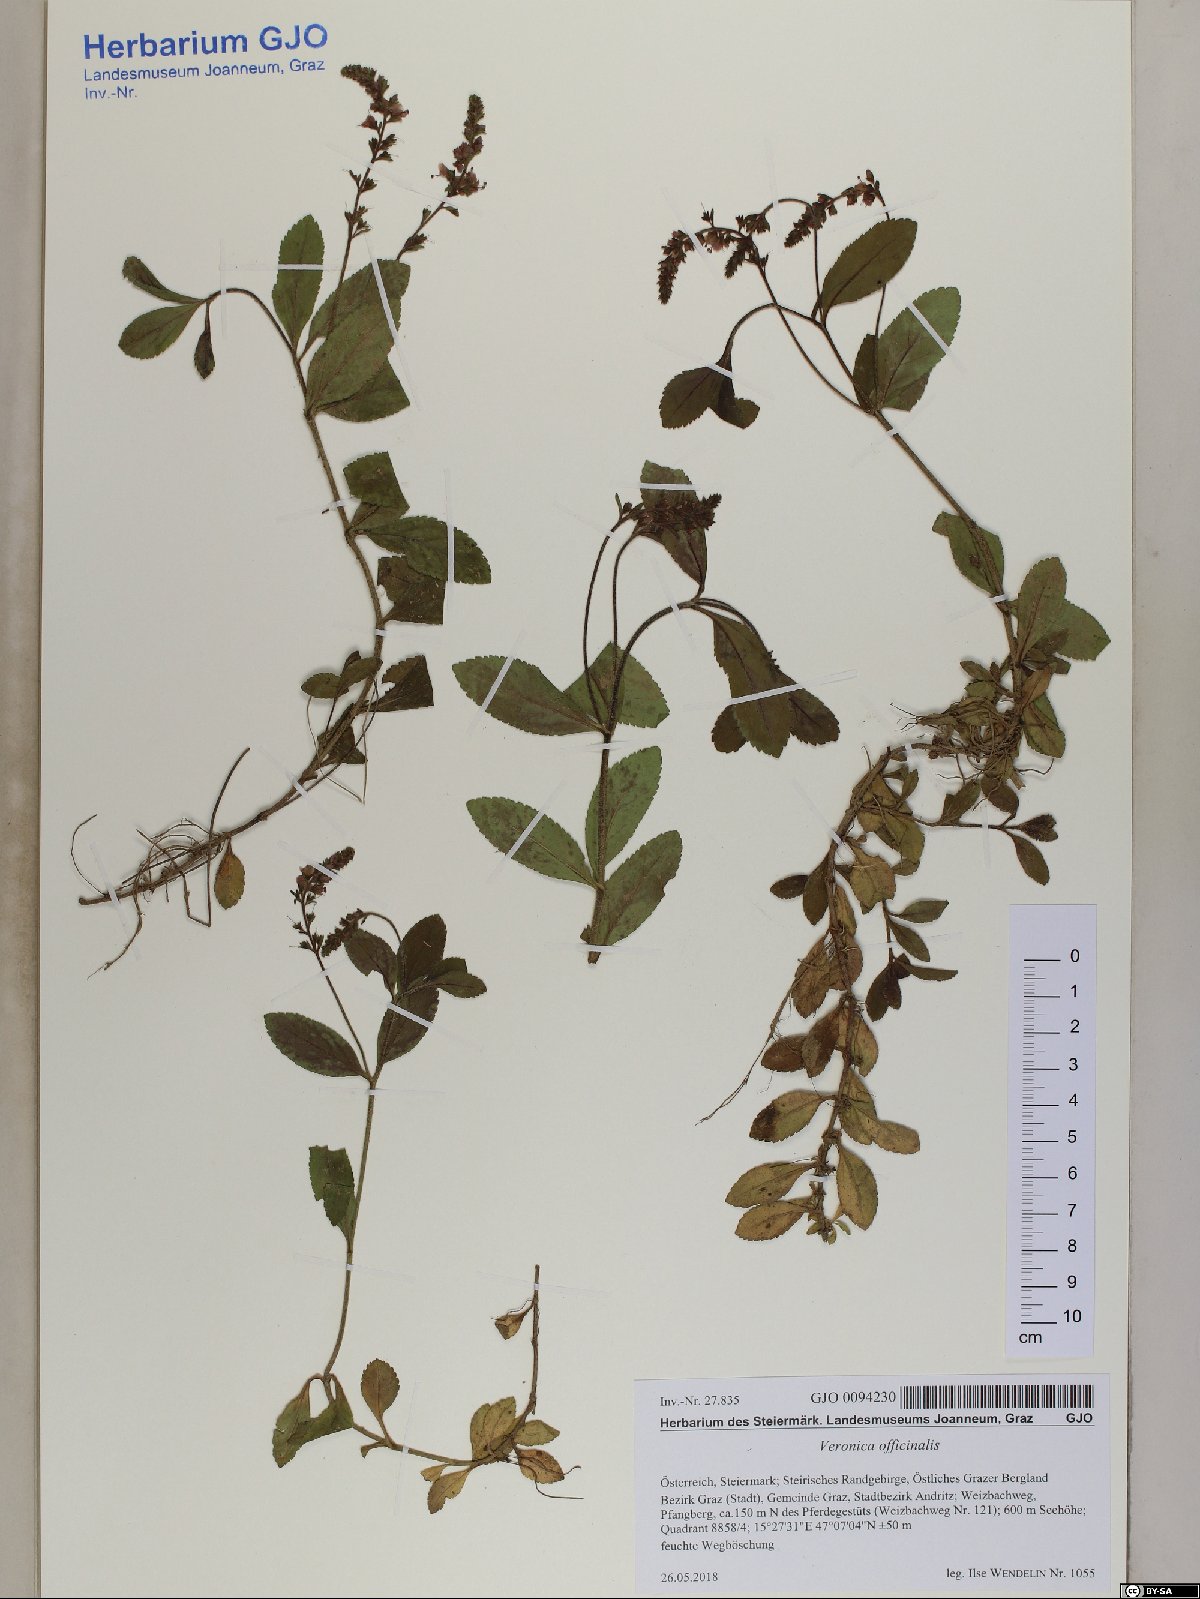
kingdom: Plantae
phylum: Tracheophyta
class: Magnoliopsida
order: Lamiales
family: Plantaginaceae
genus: Veronica
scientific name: Veronica officinalis
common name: Common speedwell
